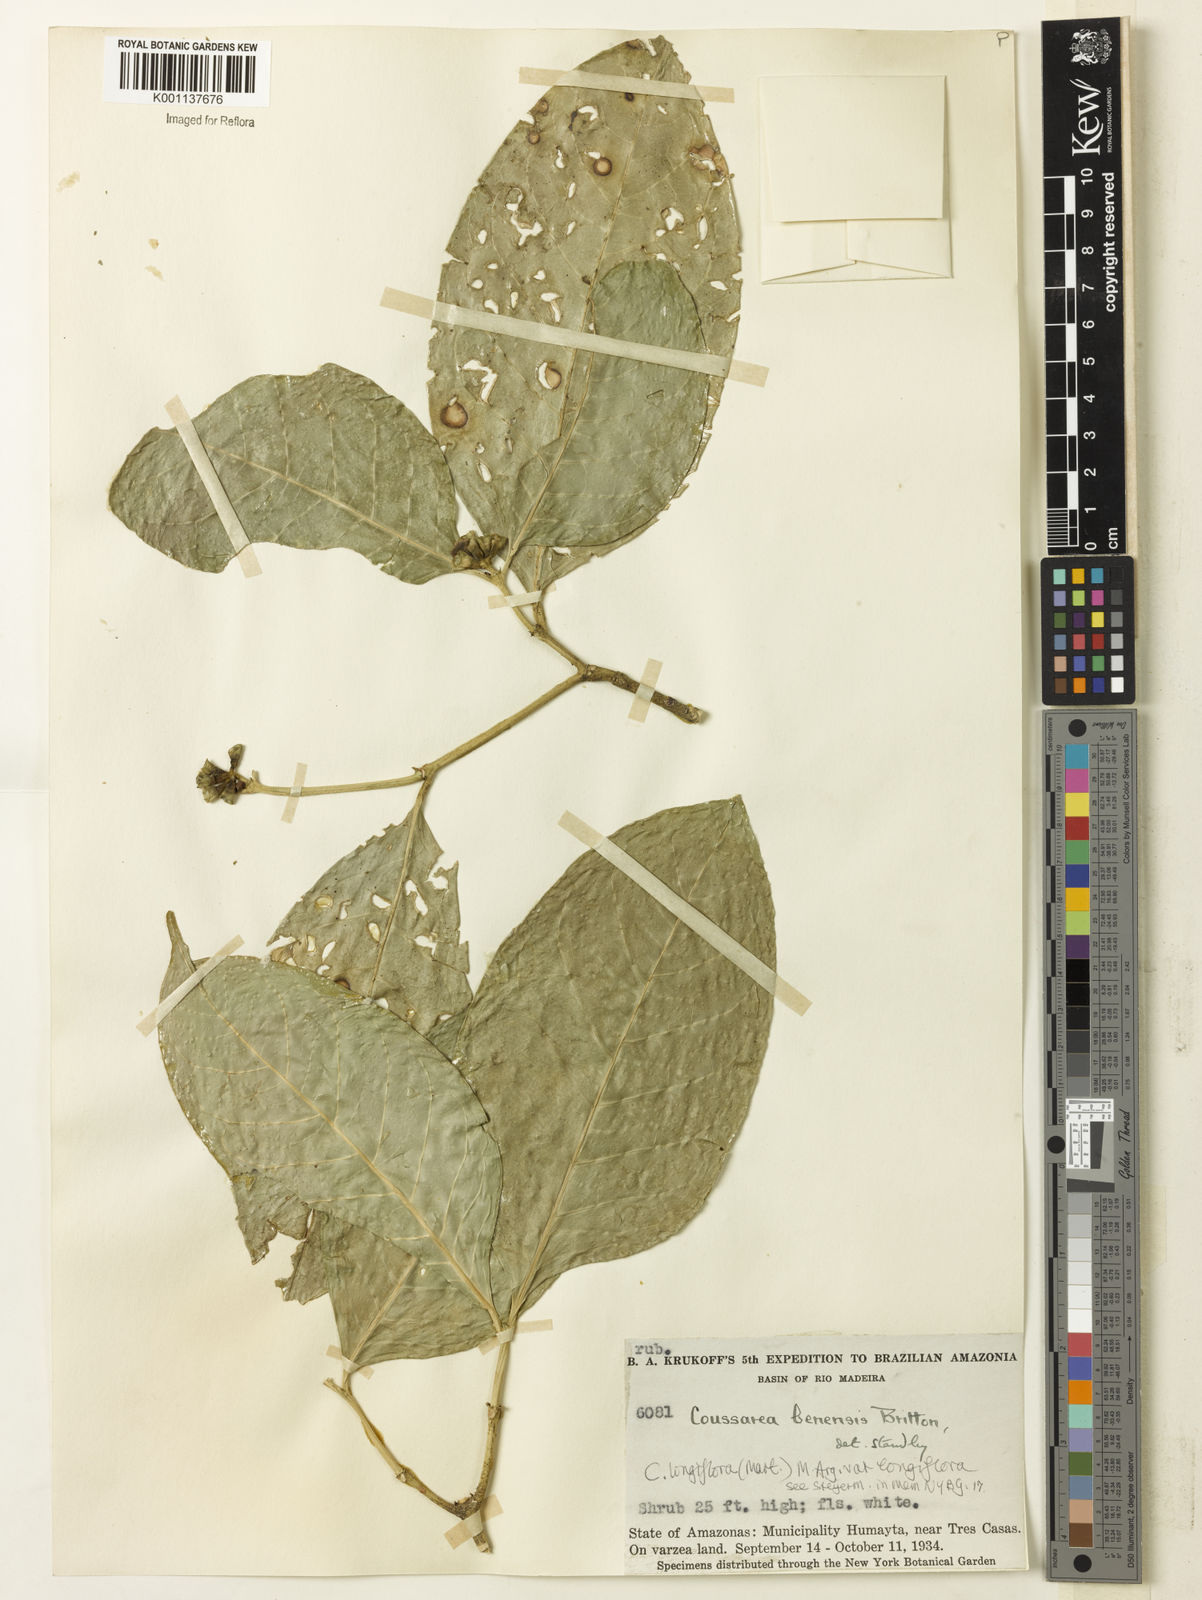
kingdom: Plantae
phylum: Tracheophyta
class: Magnoliopsida
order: Gentianales
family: Rubiaceae
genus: Coussarea
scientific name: Coussarea
